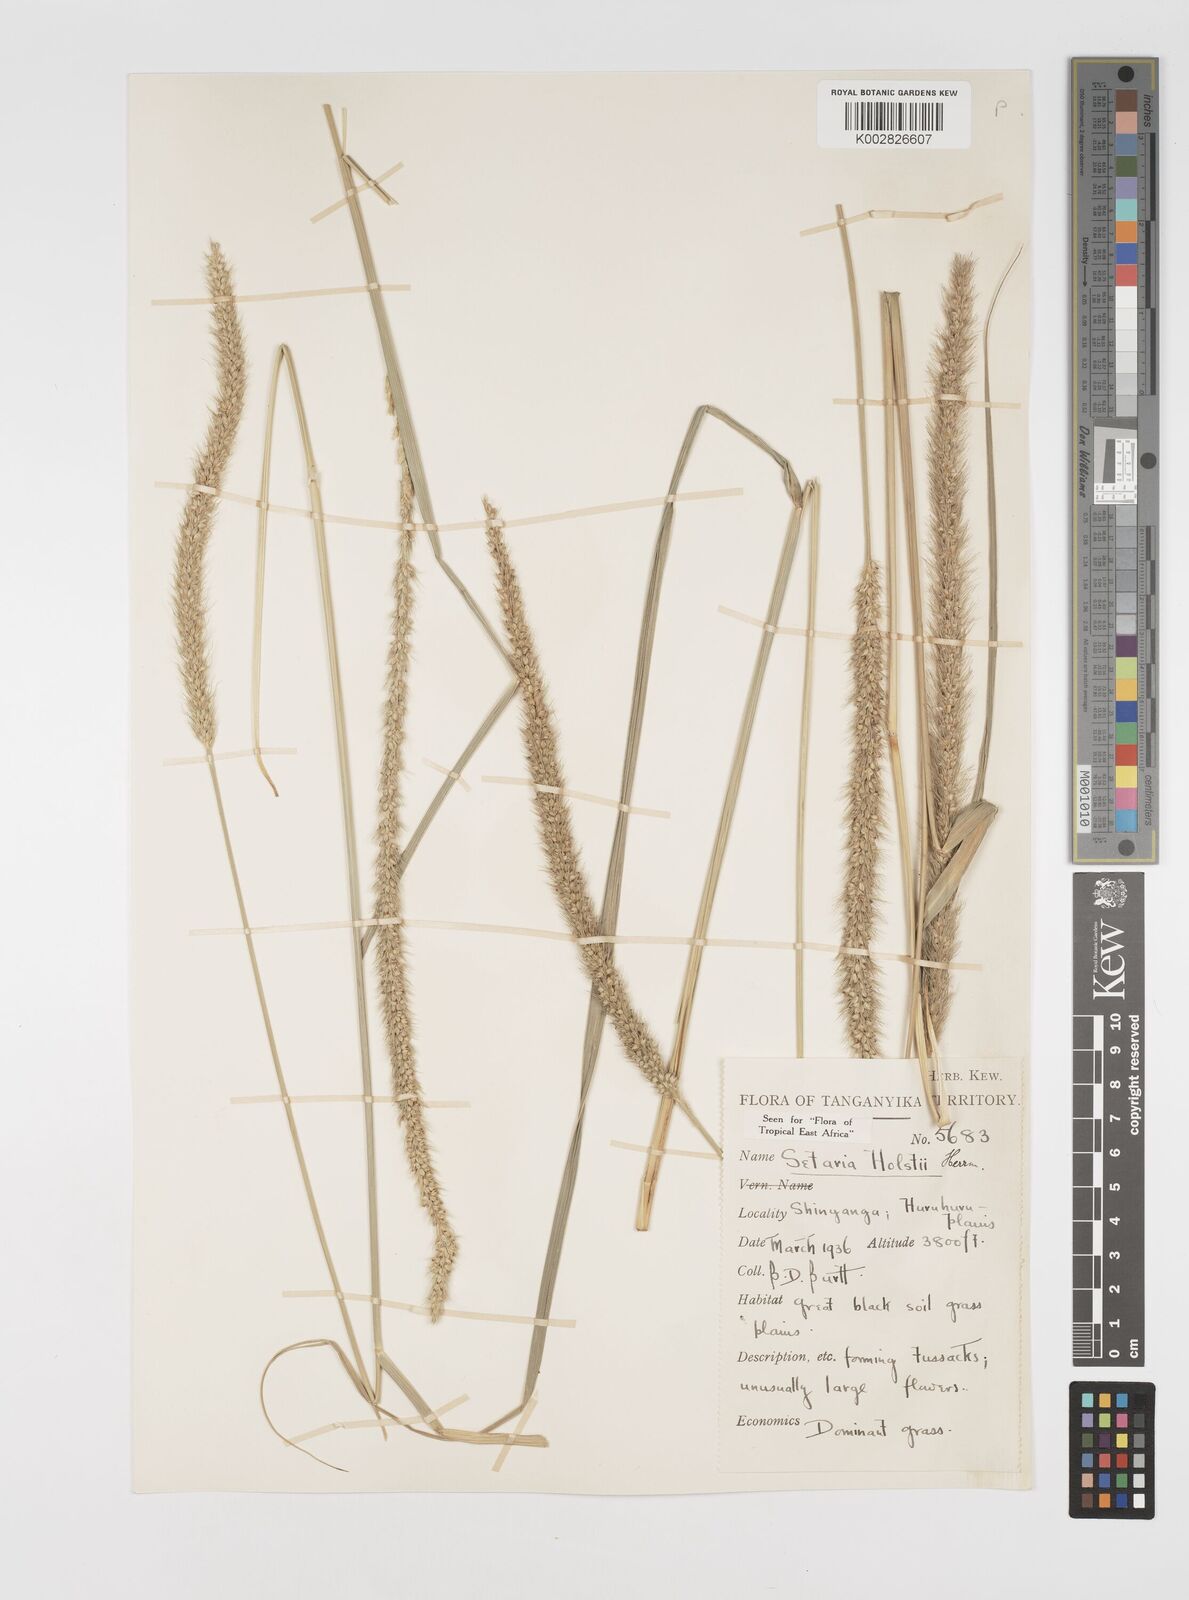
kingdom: Plantae
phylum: Tracheophyta
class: Liliopsida
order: Poales
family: Poaceae
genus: Setaria
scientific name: Setaria incrassata
